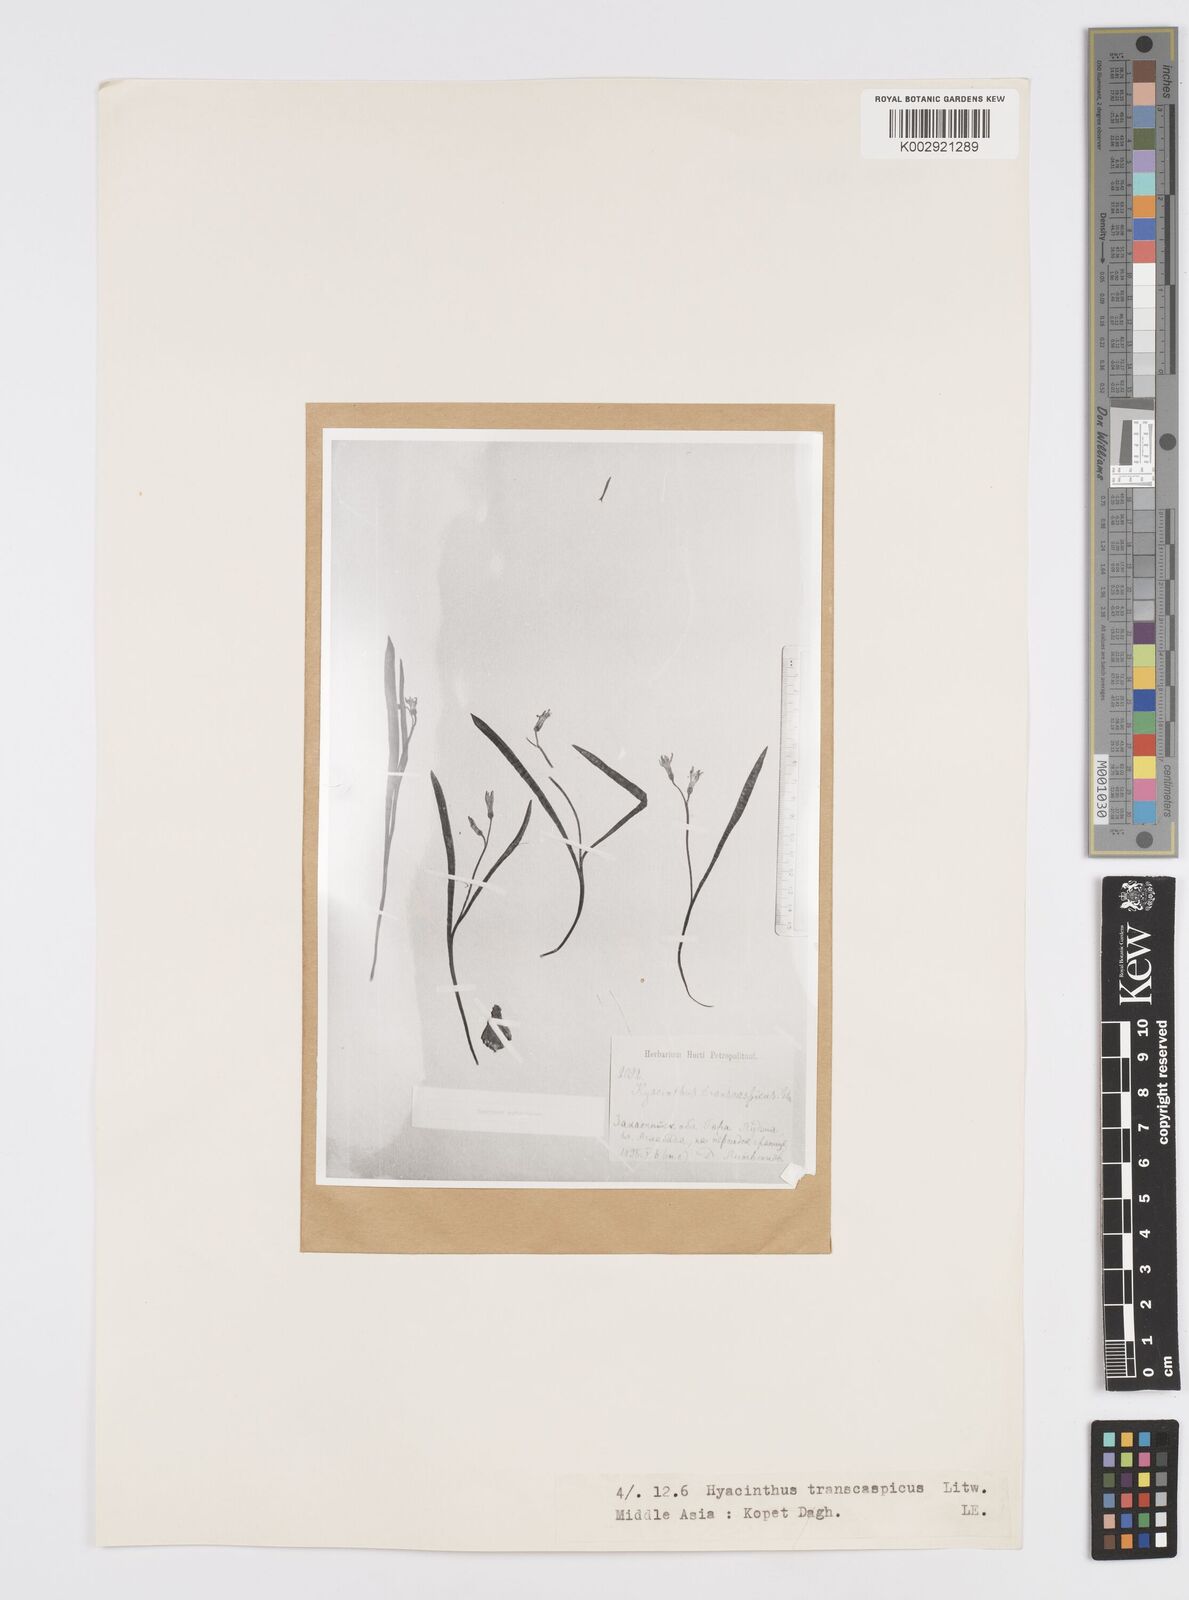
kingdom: Plantae
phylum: Tracheophyta
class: Liliopsida
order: Asparagales
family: Asparagaceae
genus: Hyacinthus
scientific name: Hyacinthus transcaspicus
